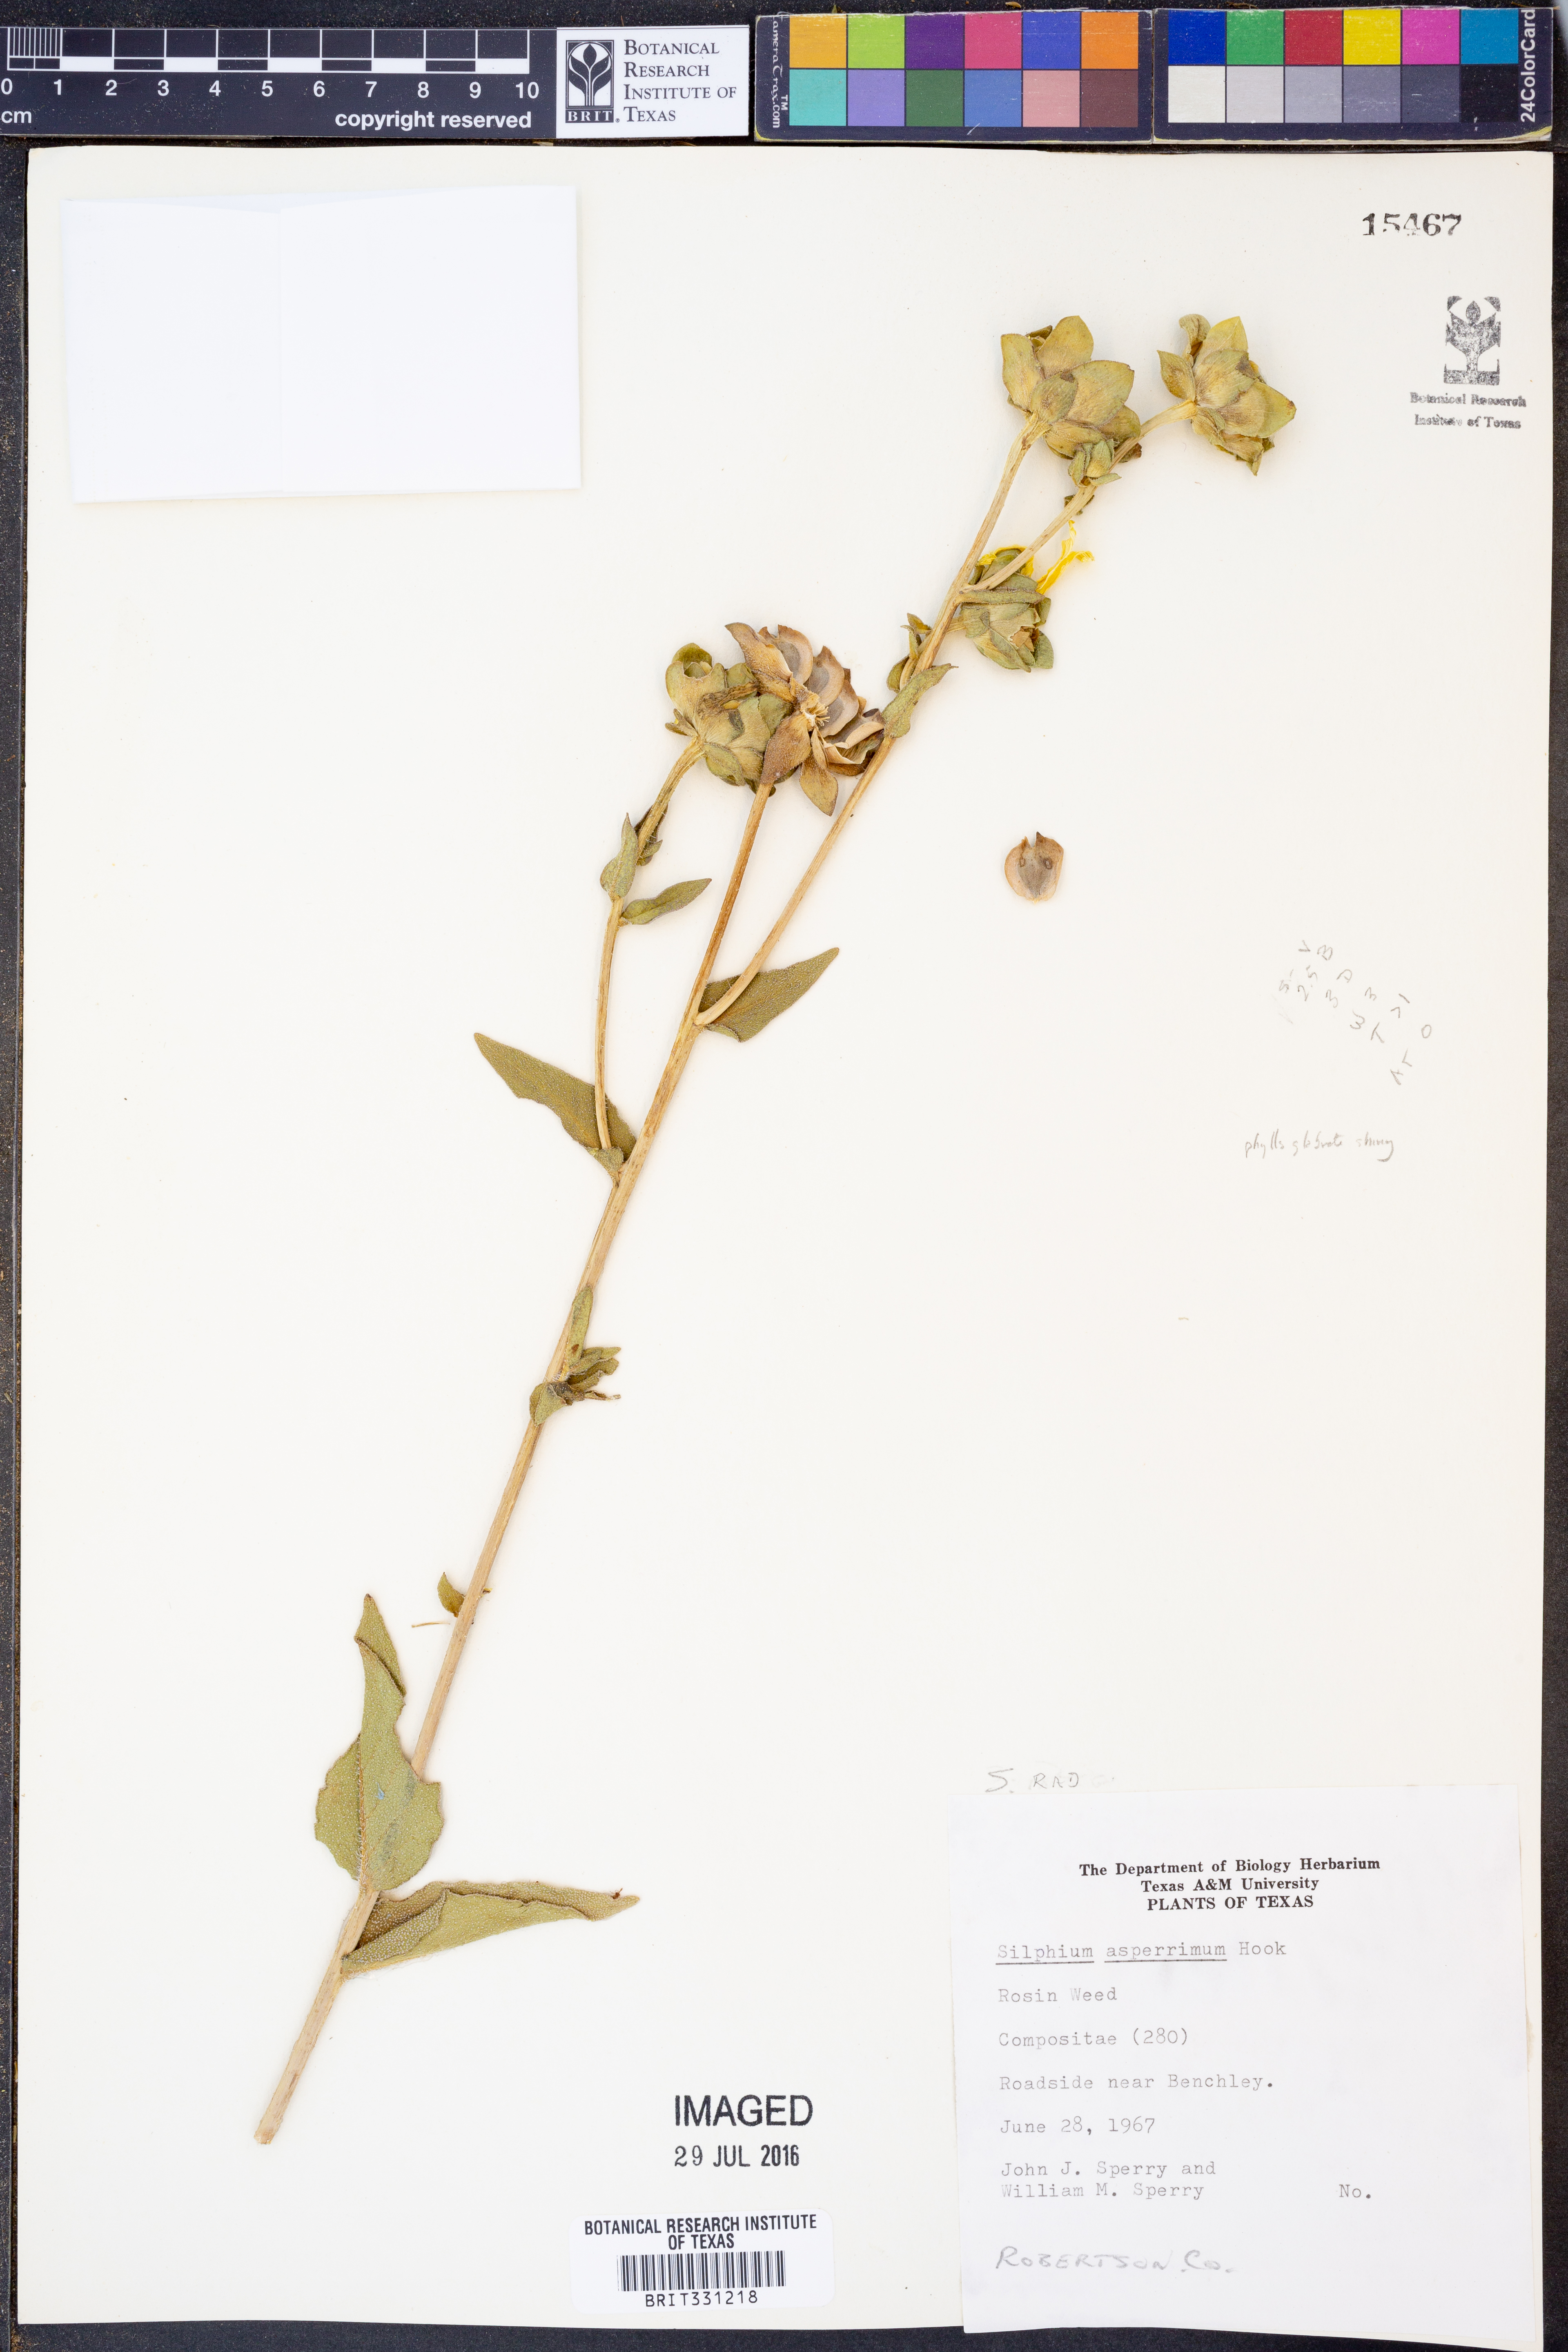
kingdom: Plantae
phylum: Tracheophyta
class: Magnoliopsida
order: Asterales
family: Asteraceae
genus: Silphium
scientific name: Silphium asperrimum
